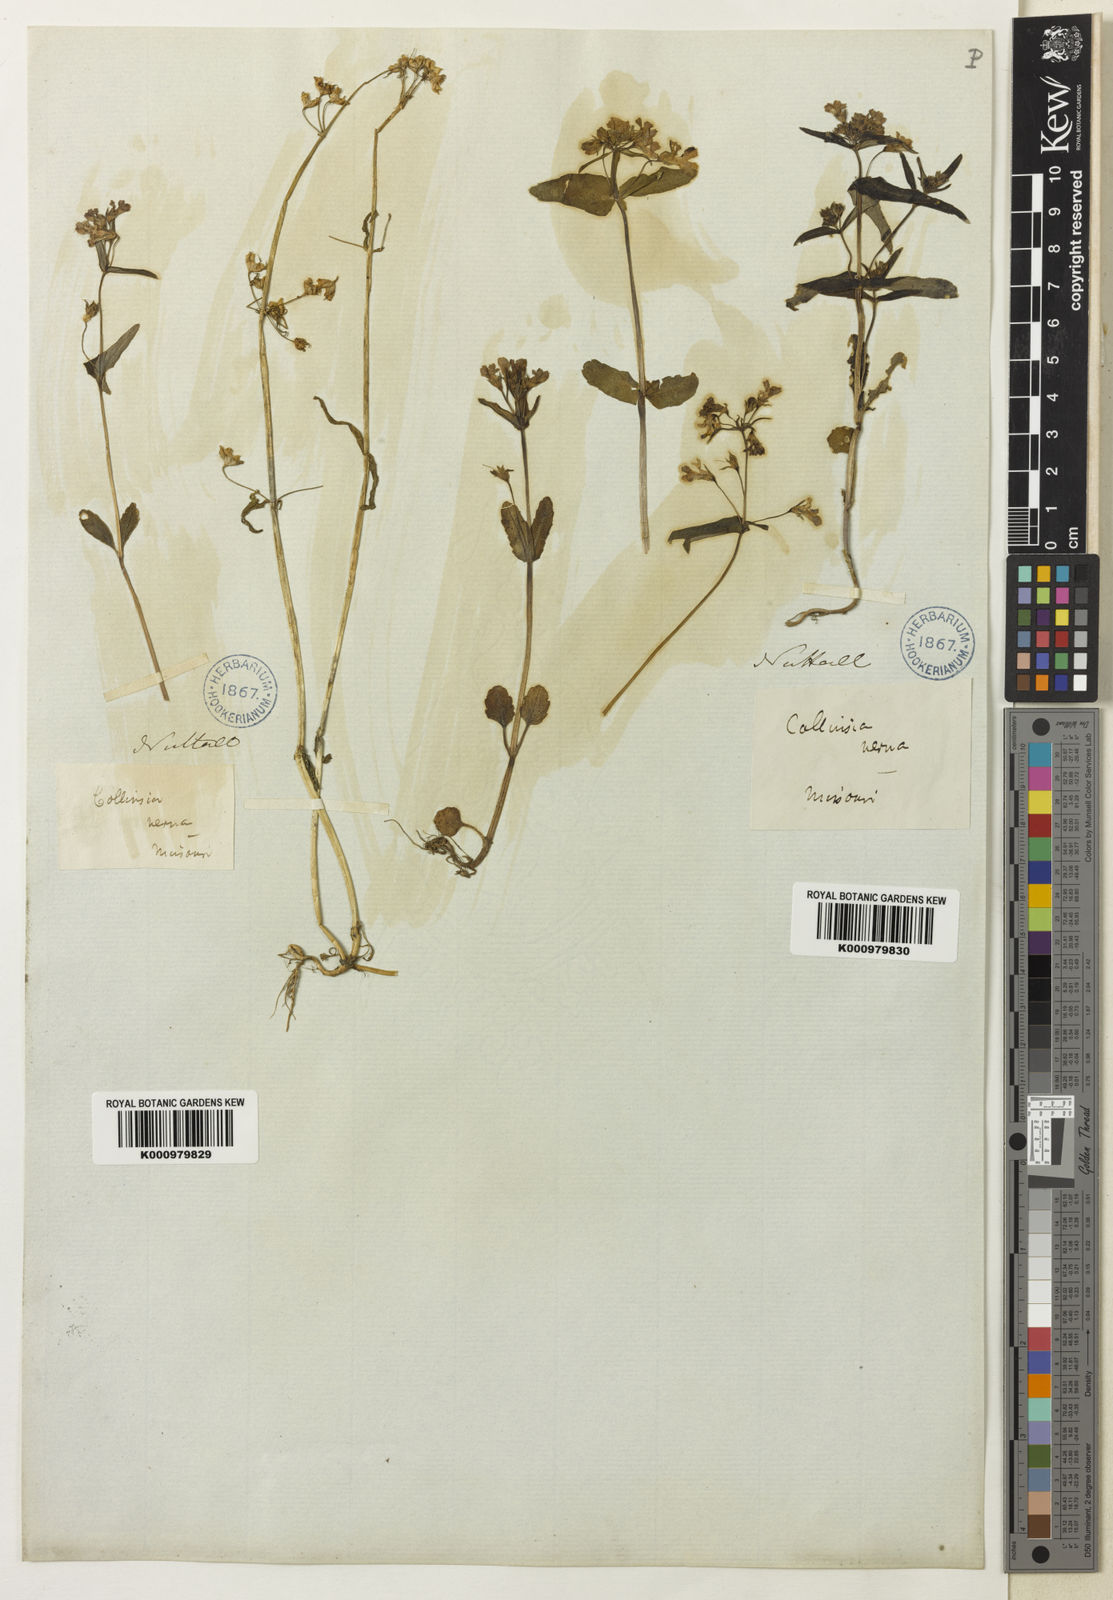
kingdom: Plantae
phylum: Tracheophyta
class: Magnoliopsida
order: Lamiales
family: Plantaginaceae
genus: Collinsia
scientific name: Collinsia verna
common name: Broad-leaved collinsia
